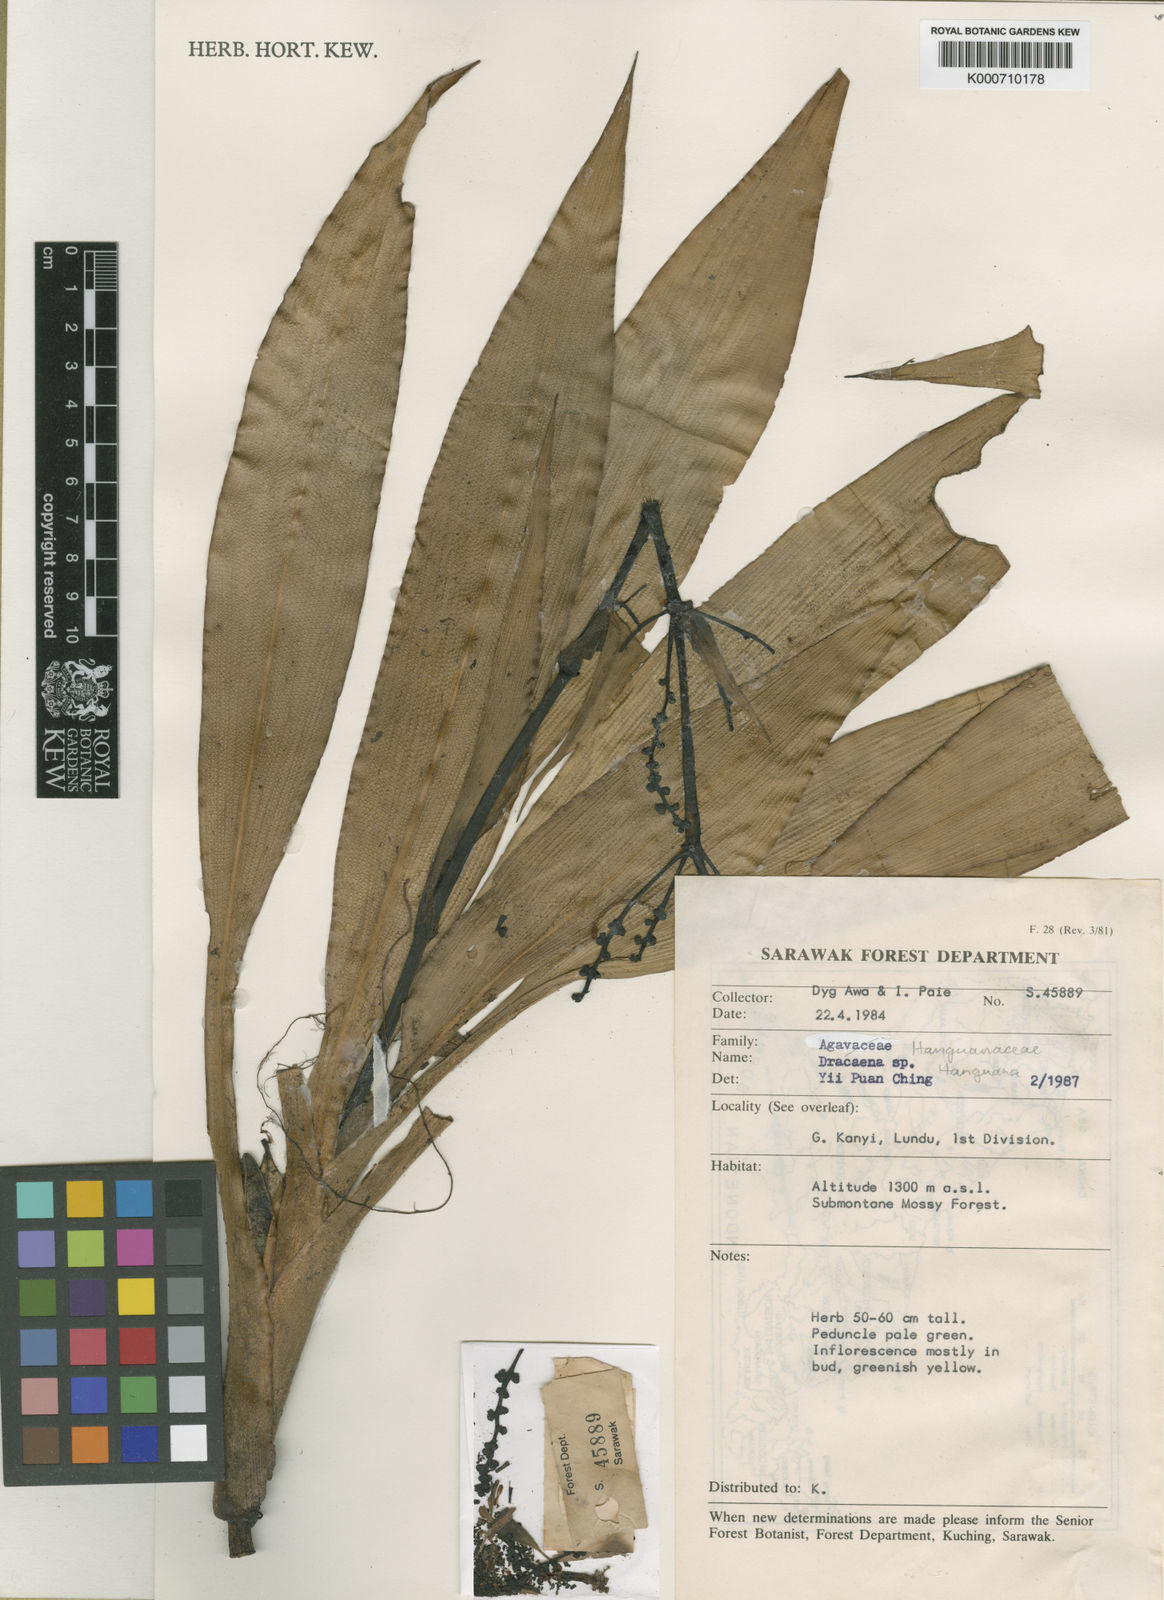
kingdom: Plantae
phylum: Tracheophyta
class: Liliopsida
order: Commelinales
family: Hanguanaceae
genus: Hanguana
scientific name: Hanguana
